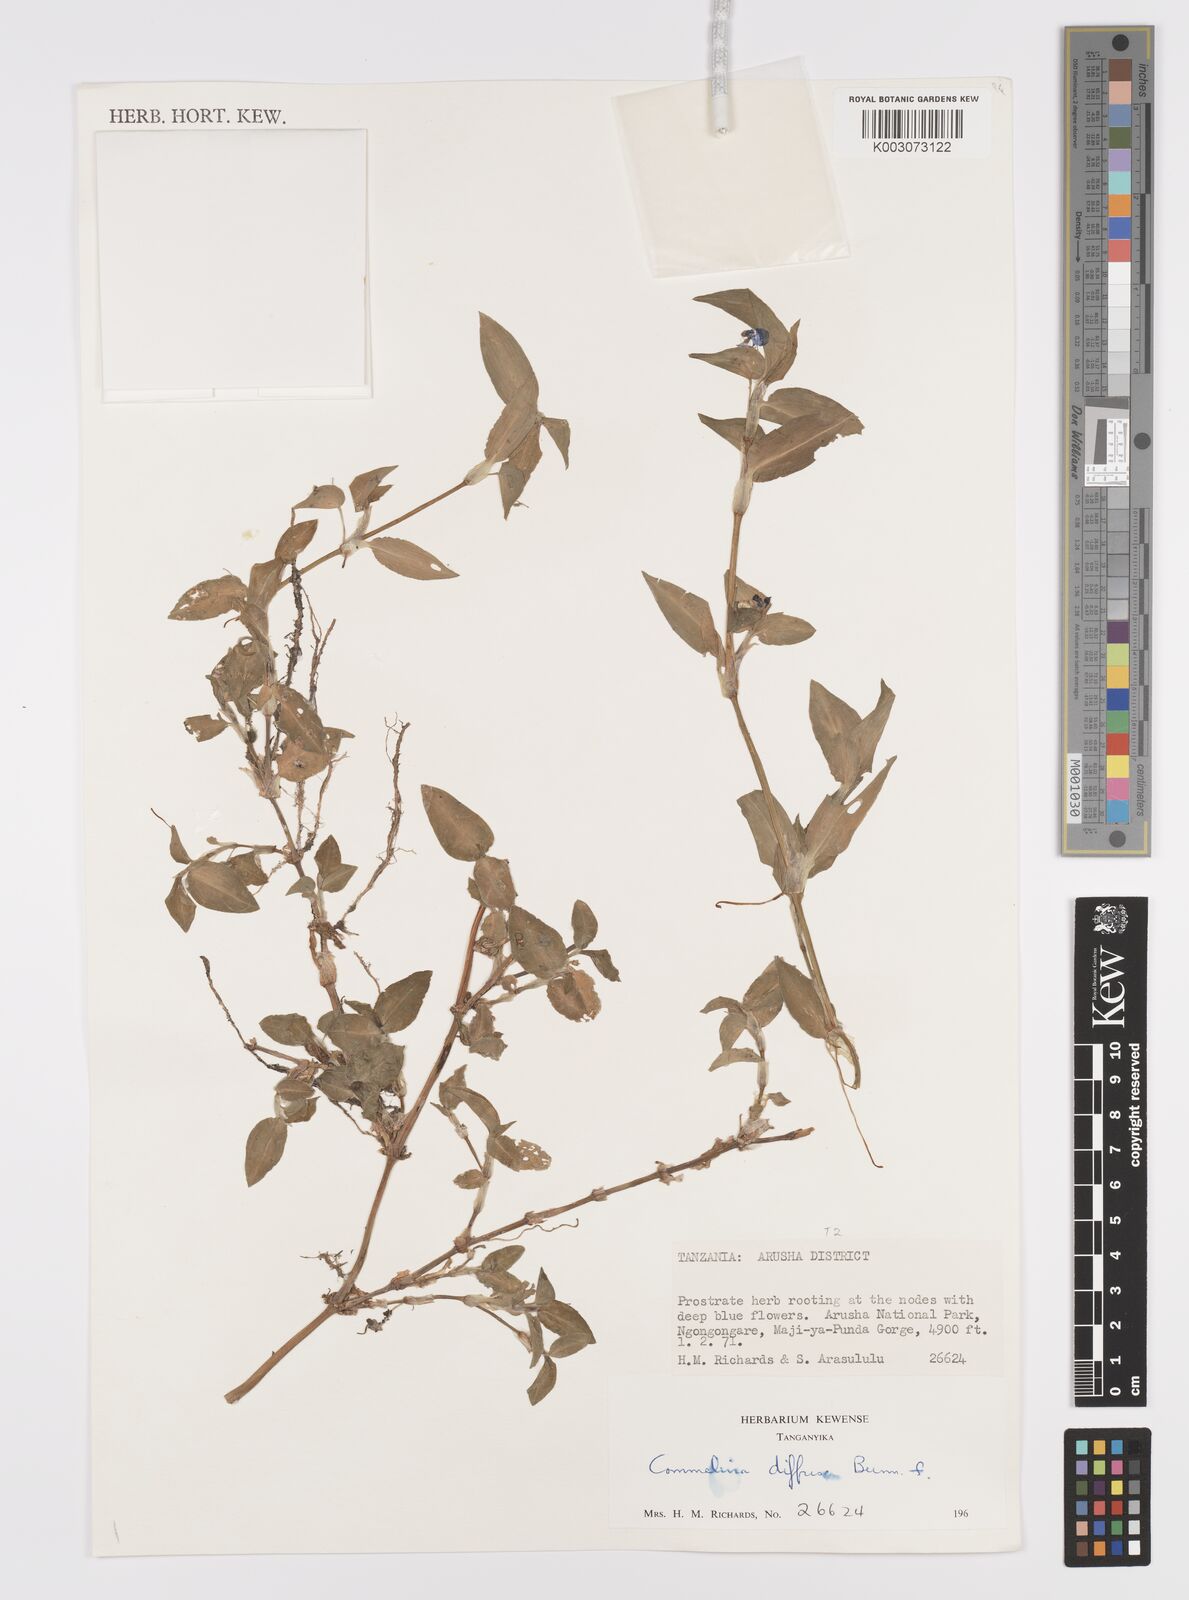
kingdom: Plantae
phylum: Tracheophyta
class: Liliopsida
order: Commelinales
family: Commelinaceae
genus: Commelina
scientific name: Commelina diffusa
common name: Climbing dayflower
